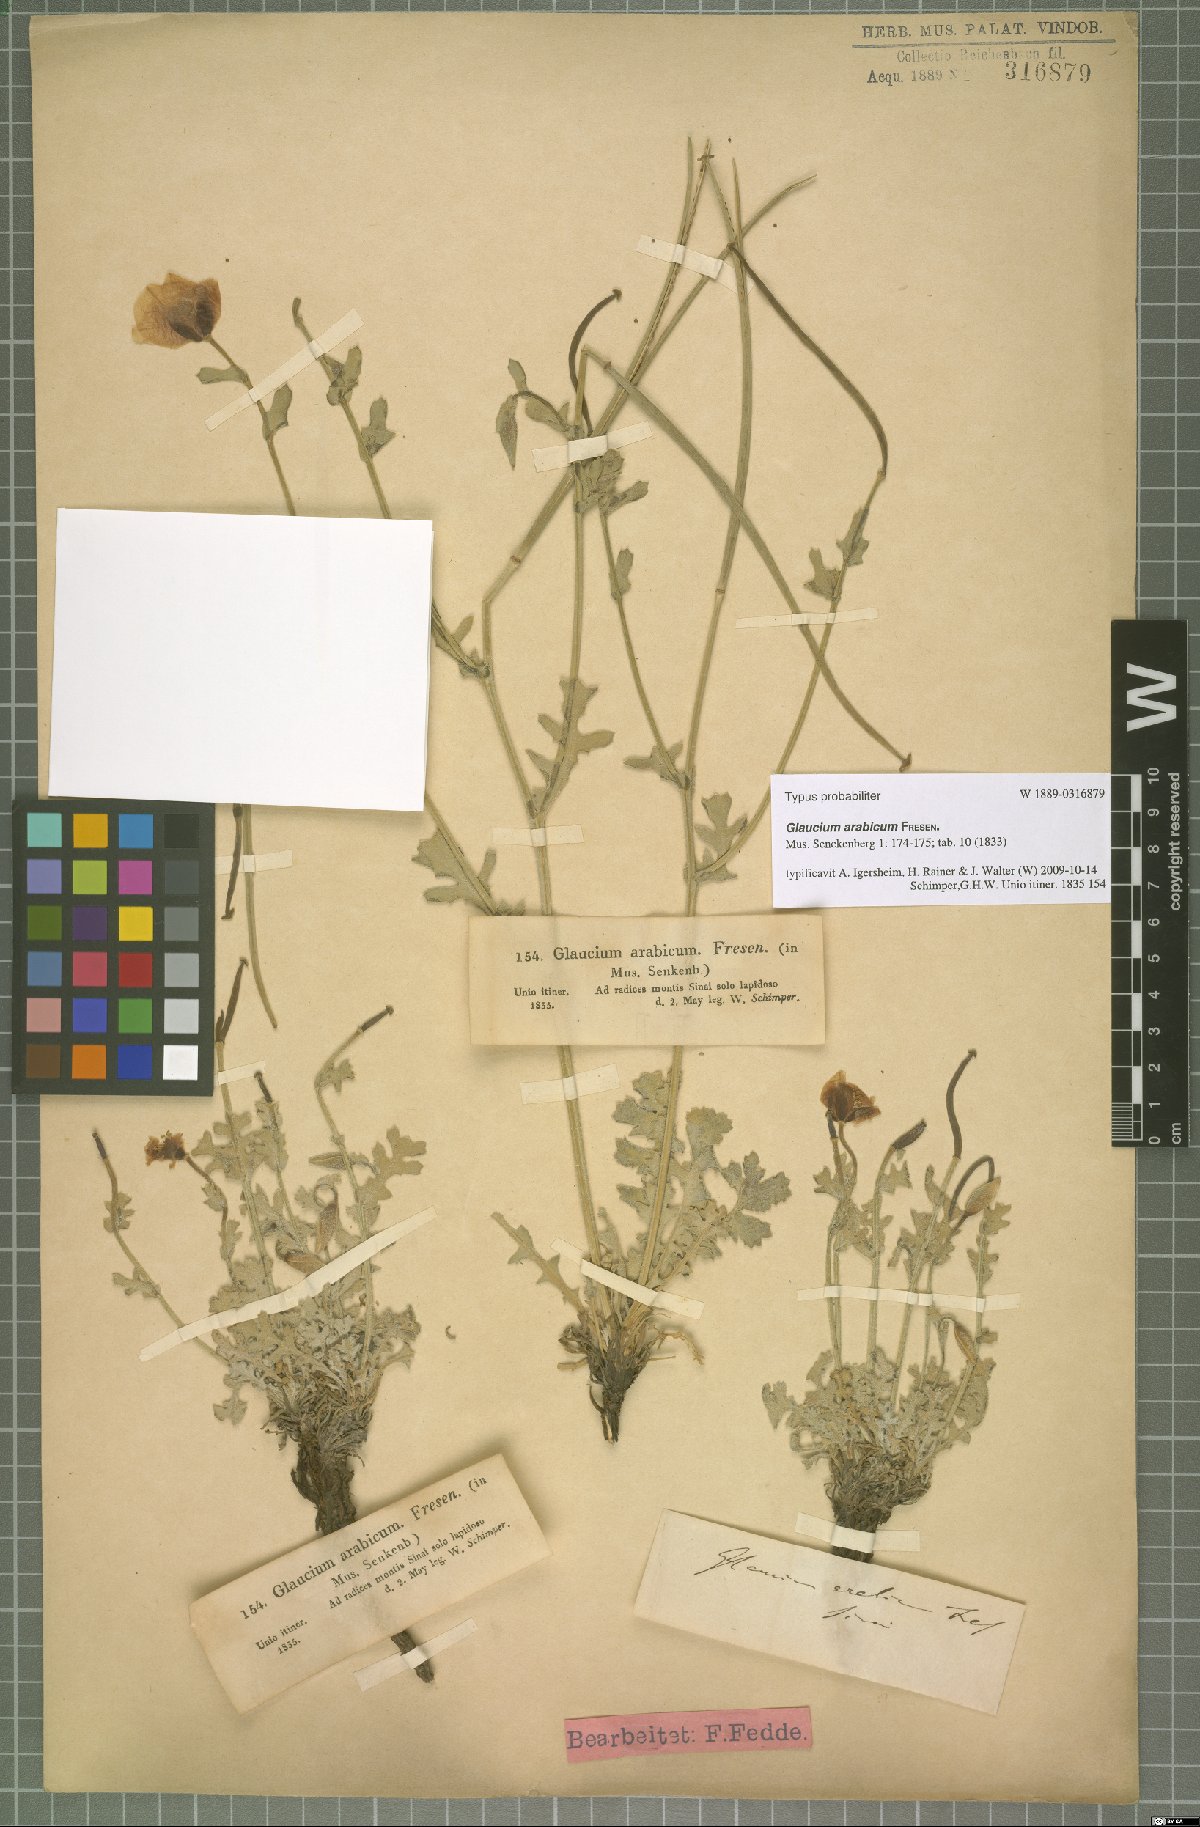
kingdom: Plantae
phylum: Tracheophyta
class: Magnoliopsida
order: Ranunculales
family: Papaveraceae
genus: Glaucium
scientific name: Glaucium arabicum
